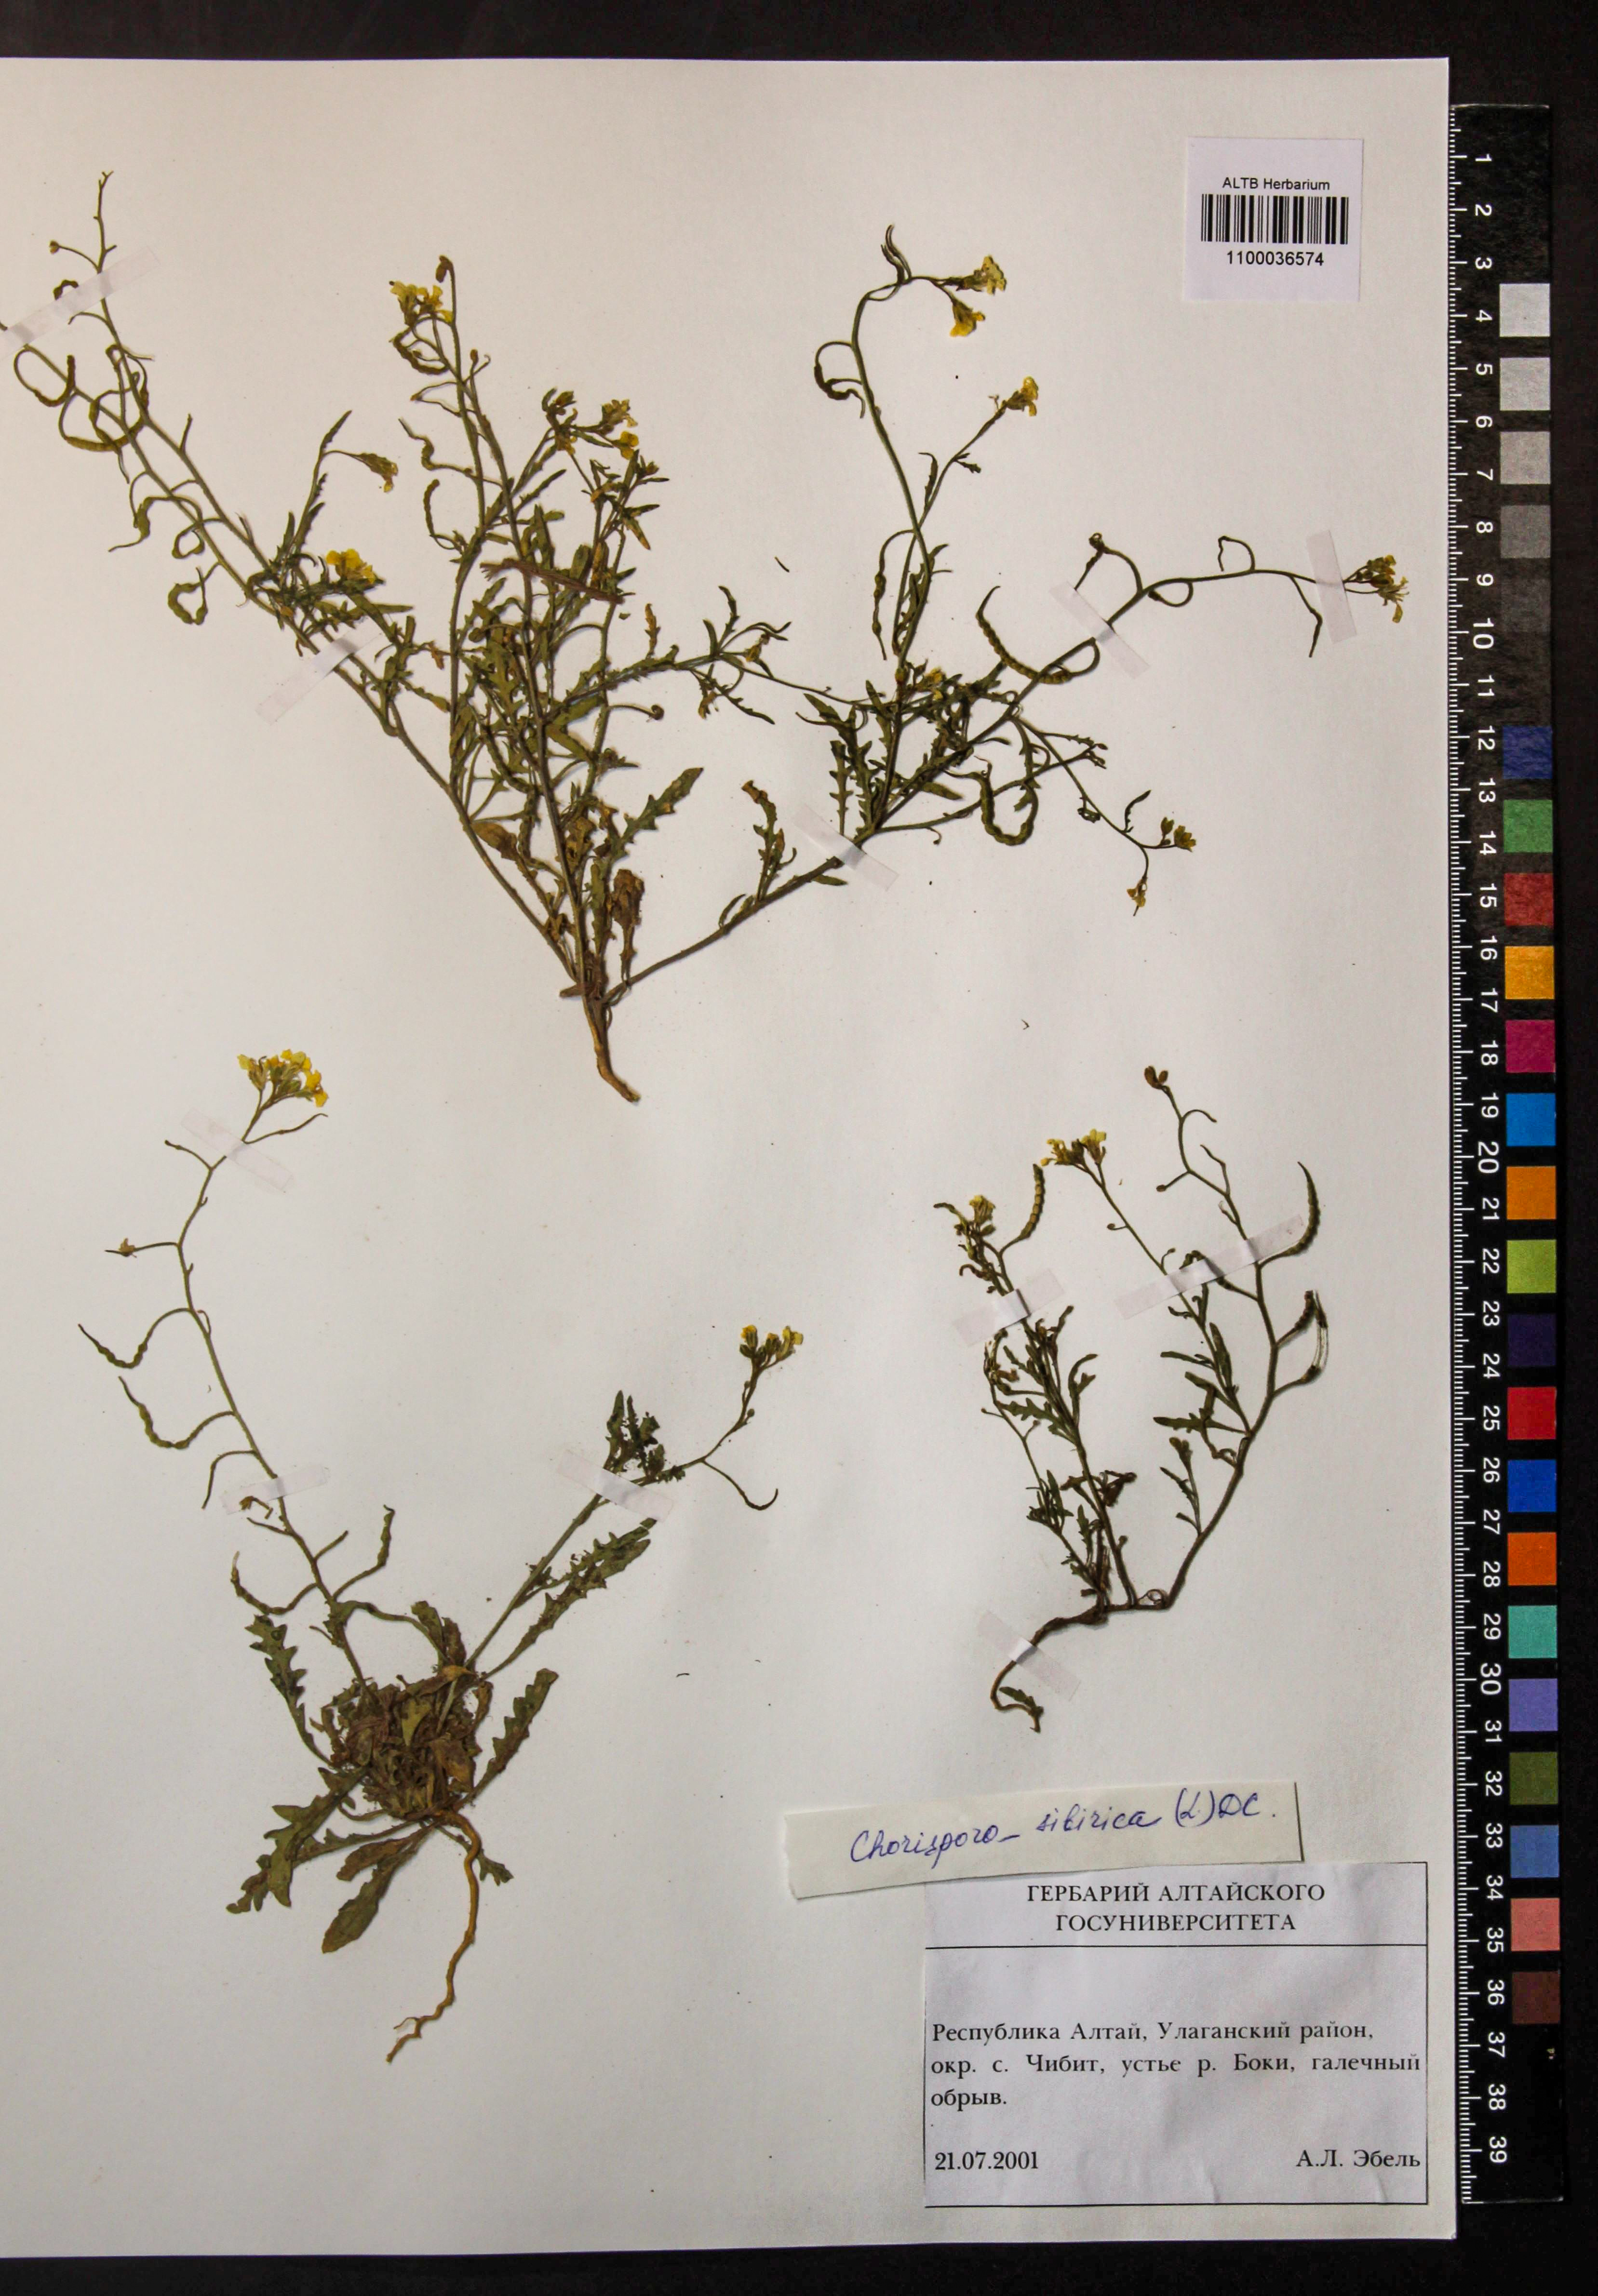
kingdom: Plantae
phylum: Tracheophyta
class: Magnoliopsida
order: Brassicales
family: Brassicaceae
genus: Chorispora
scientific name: Chorispora sibirica
